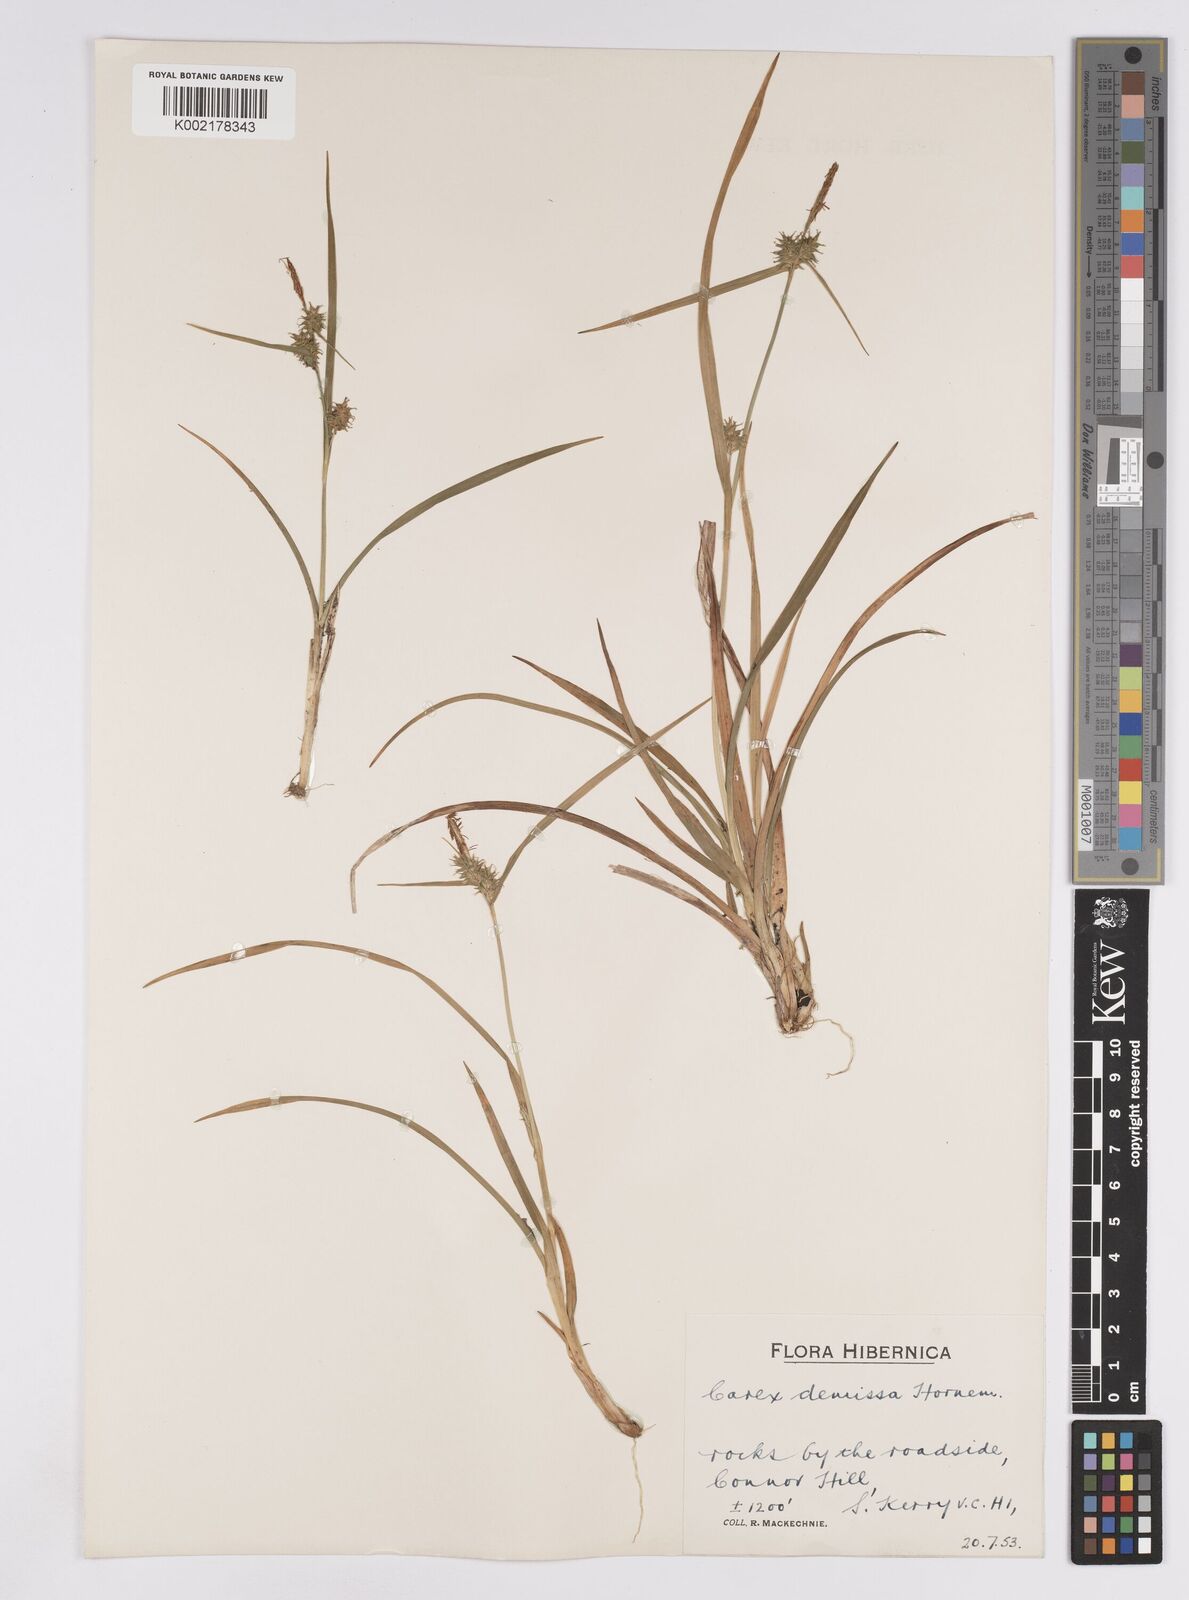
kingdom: Plantae
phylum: Tracheophyta
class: Liliopsida
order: Poales
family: Cyperaceae
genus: Carex
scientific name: Carex demissa
